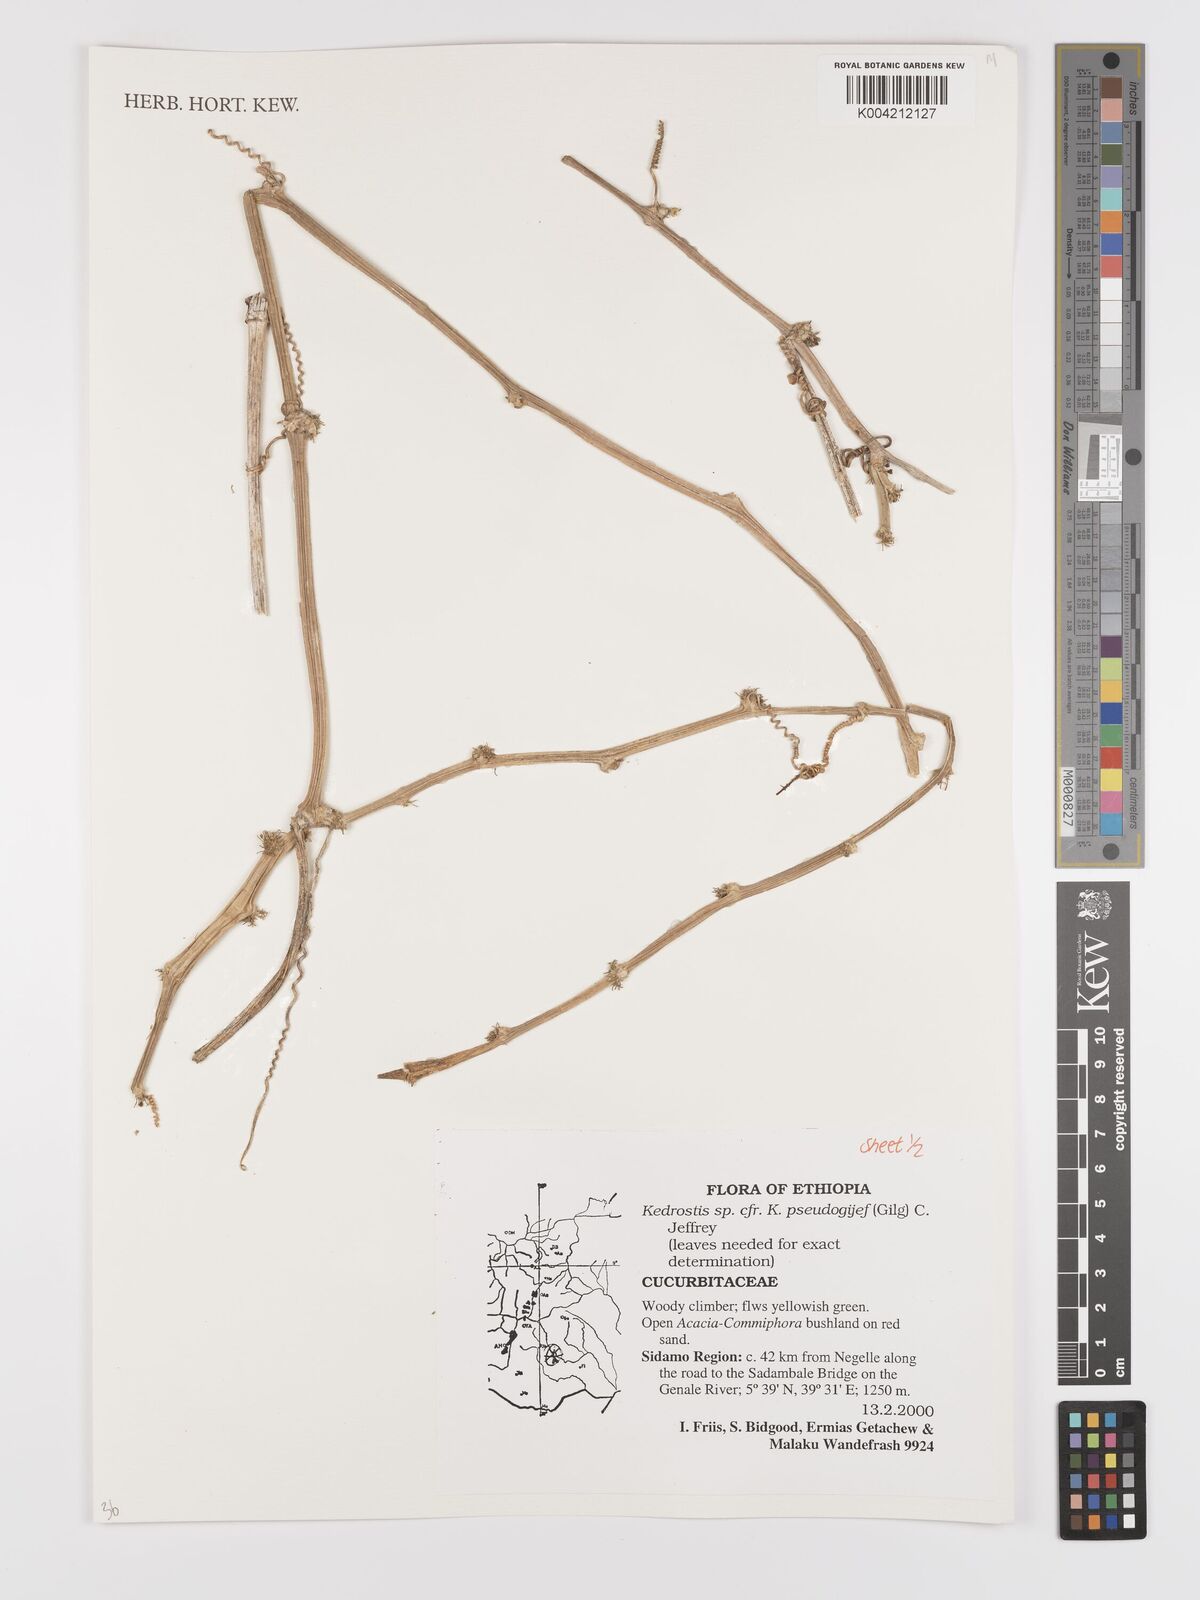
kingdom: Plantae
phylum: Tracheophyta
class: Magnoliopsida
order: Cucurbitales
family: Cucurbitaceae
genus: Kedrostis
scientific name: Kedrostis pseudogijef
